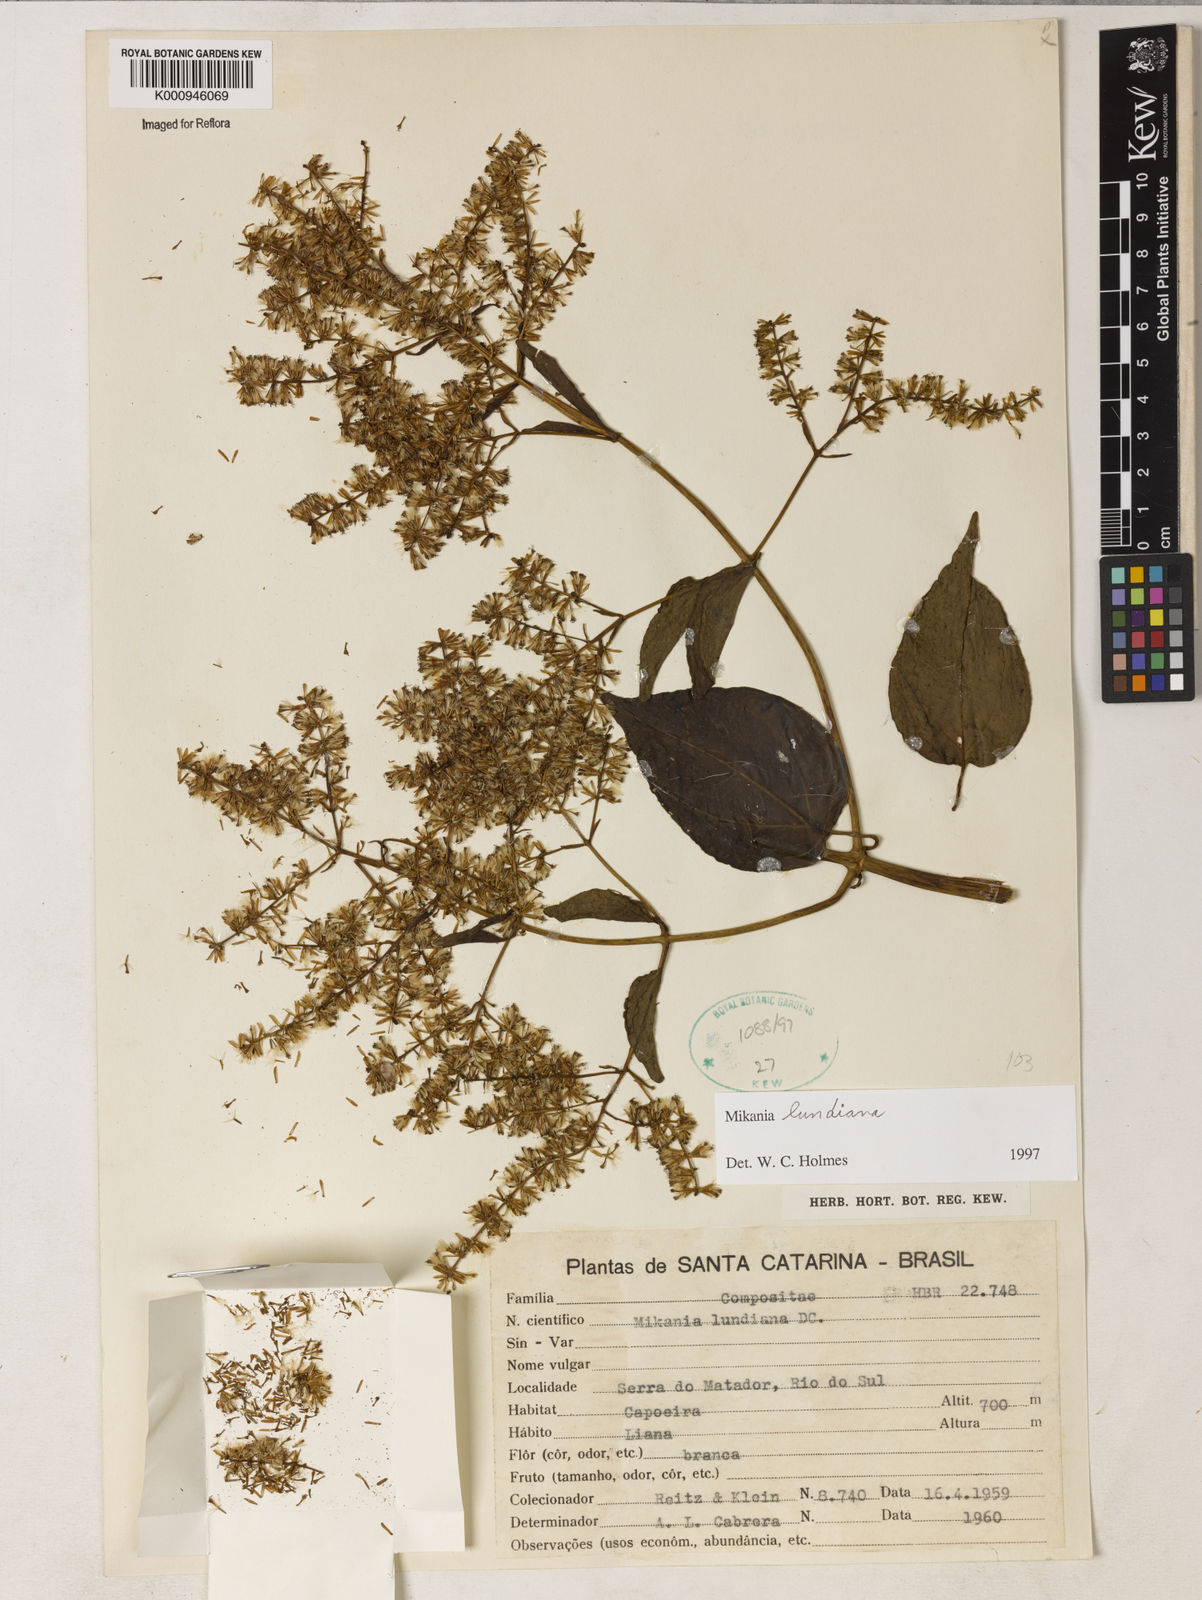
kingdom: Plantae
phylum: Tracheophyta
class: Magnoliopsida
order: Asterales
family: Asteraceae
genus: Mikania
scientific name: Mikania lundiana
